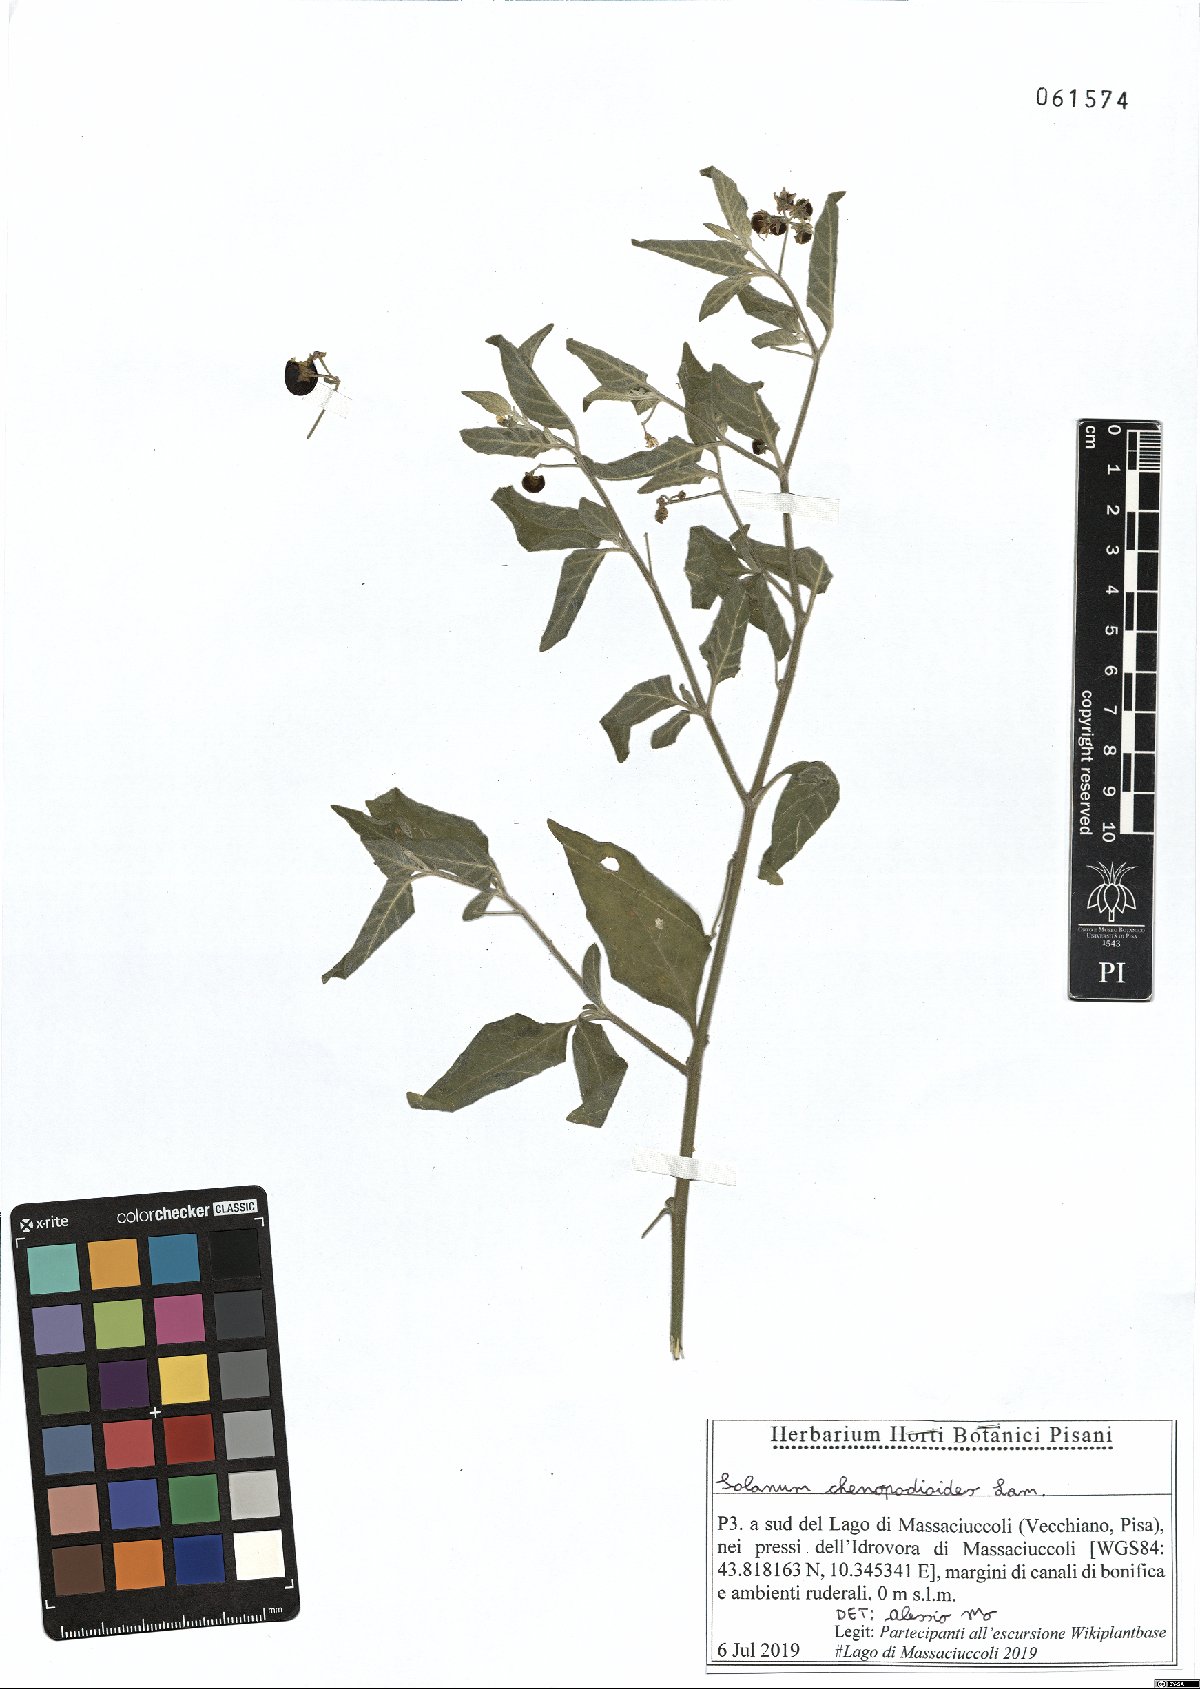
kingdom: Plantae
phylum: Tracheophyta
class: Magnoliopsida
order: Solanales
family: Solanaceae
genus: Solanum
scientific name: Solanum chenopodioides
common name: Tall nightshade
